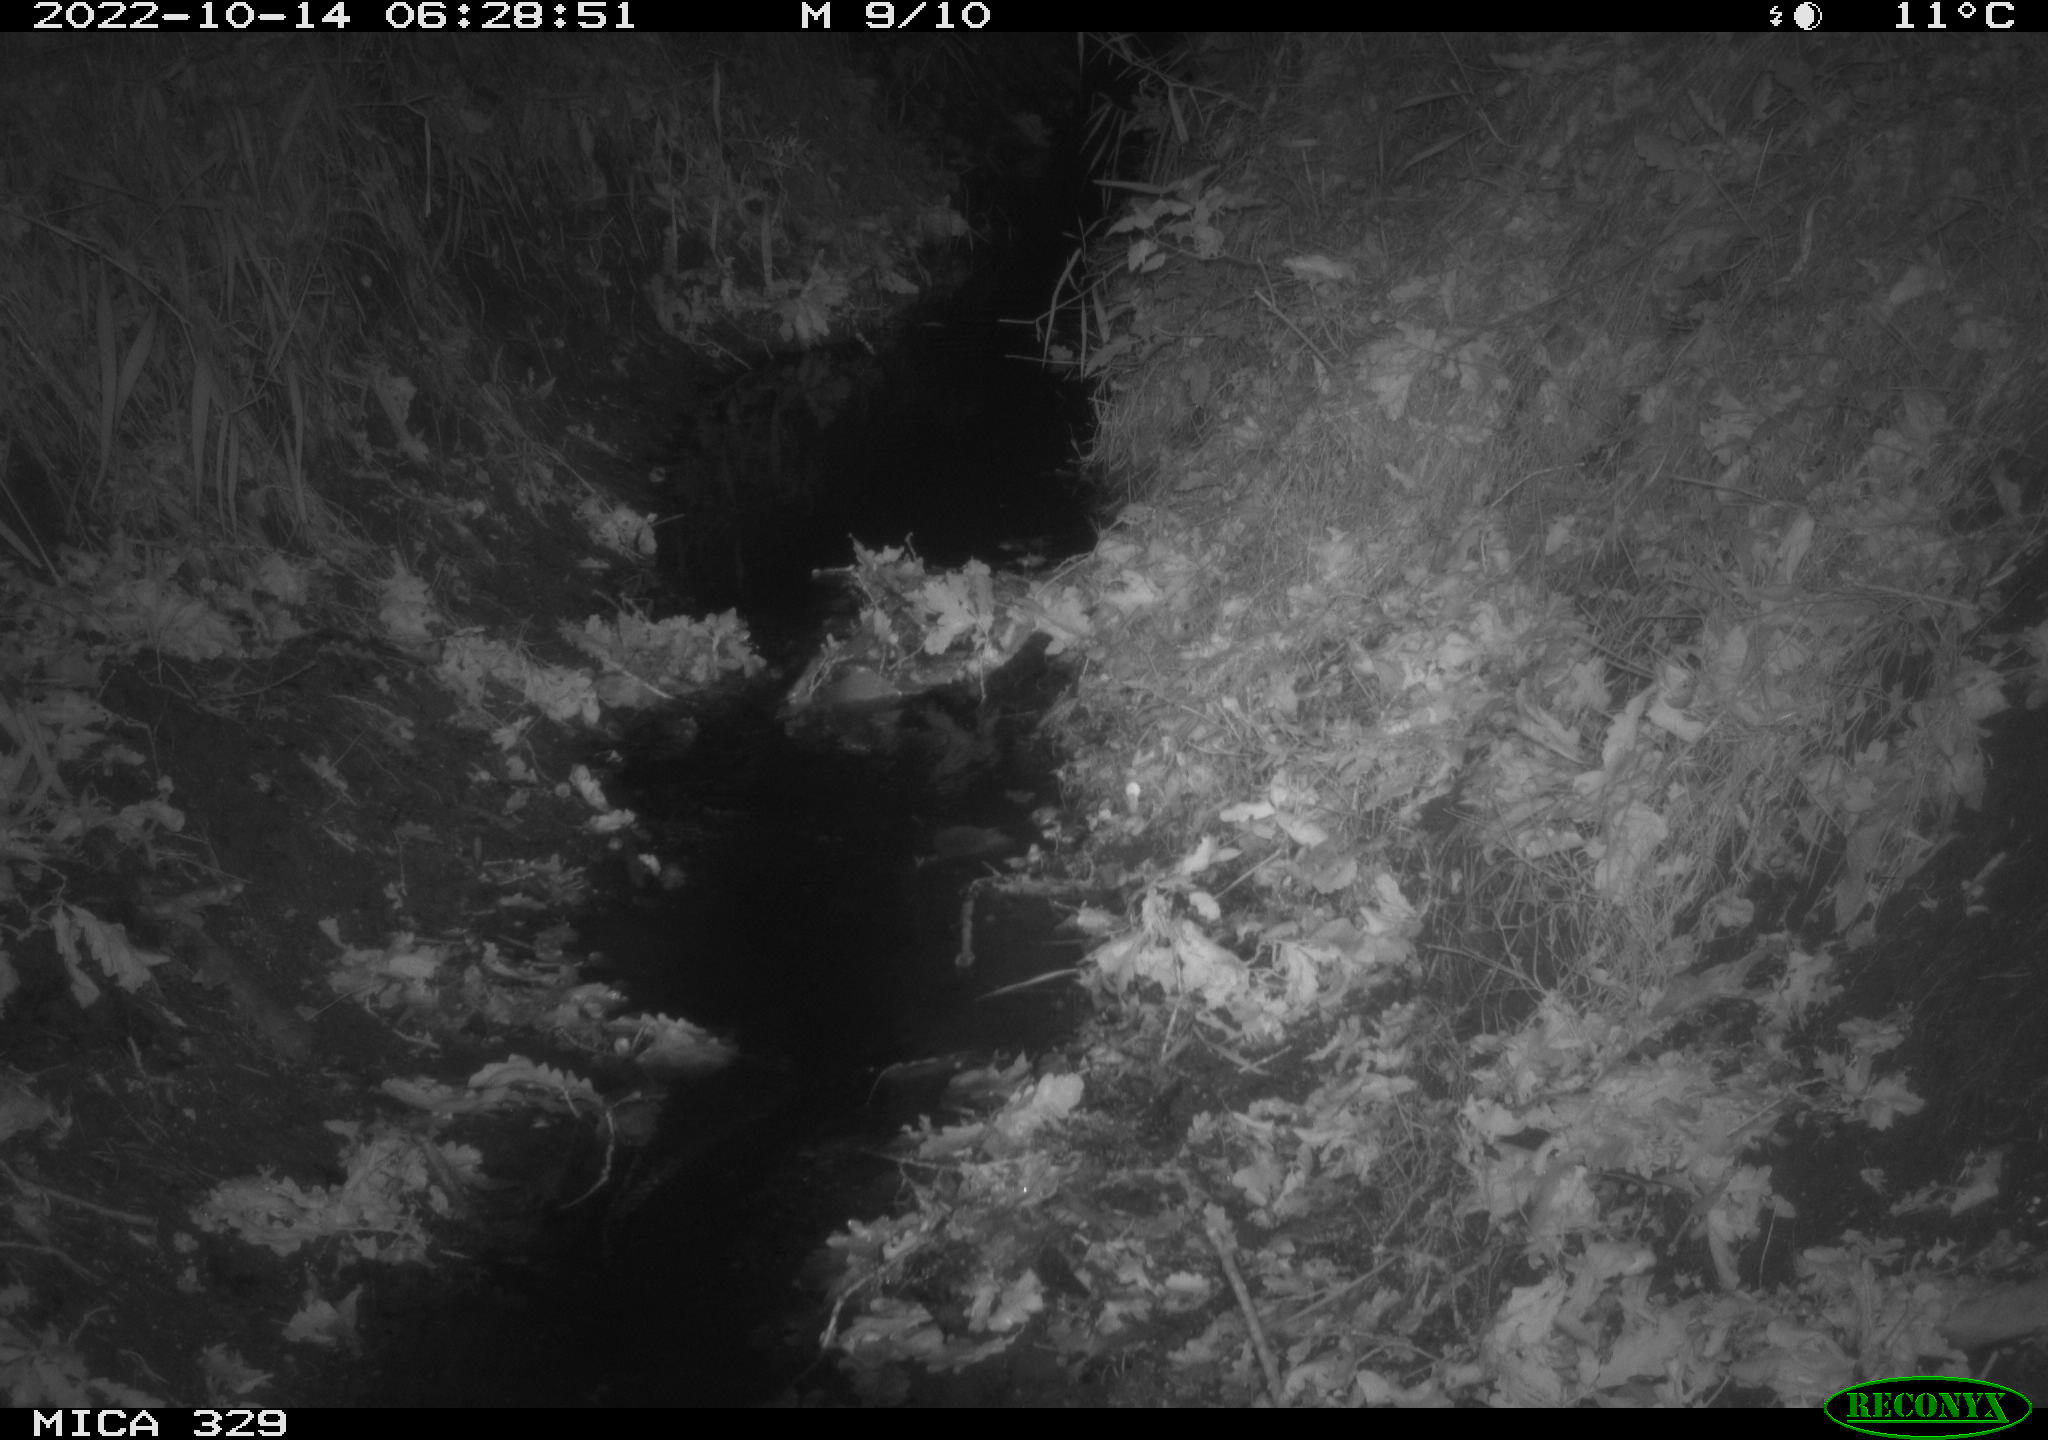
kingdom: Animalia
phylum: Chordata
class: Mammalia
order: Rodentia
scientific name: Rodentia
